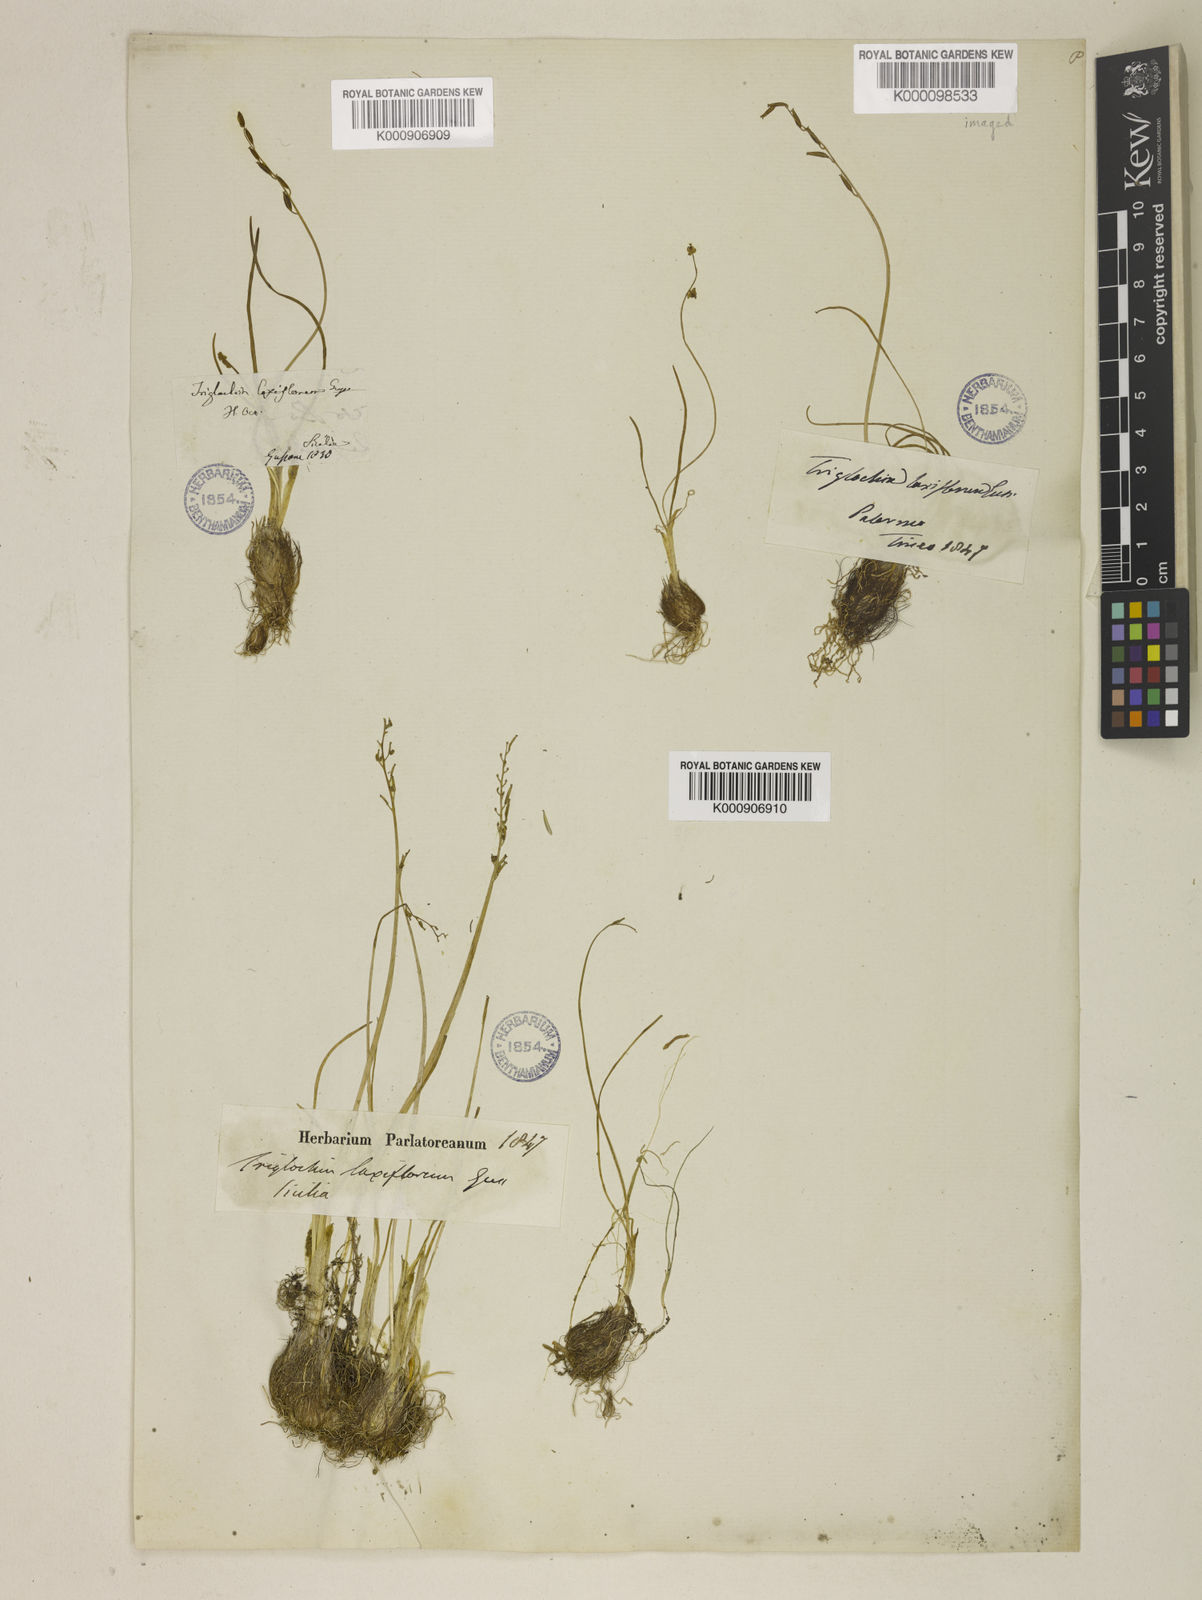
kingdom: Plantae
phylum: Tracheophyta
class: Liliopsida
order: Alismatales
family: Juncaginaceae
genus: Triglochin
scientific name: Triglochin laxiflora
